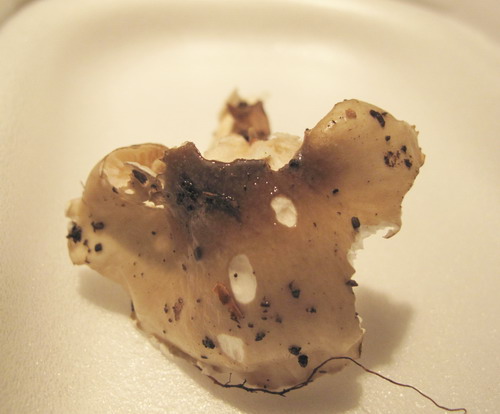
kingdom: Fungi
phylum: Basidiomycota
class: Agaricomycetes
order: Agaricales
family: Hygrophoraceae
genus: Hygrophorus
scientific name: Hygrophorus mesotephrus
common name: askegrå sneglehat
